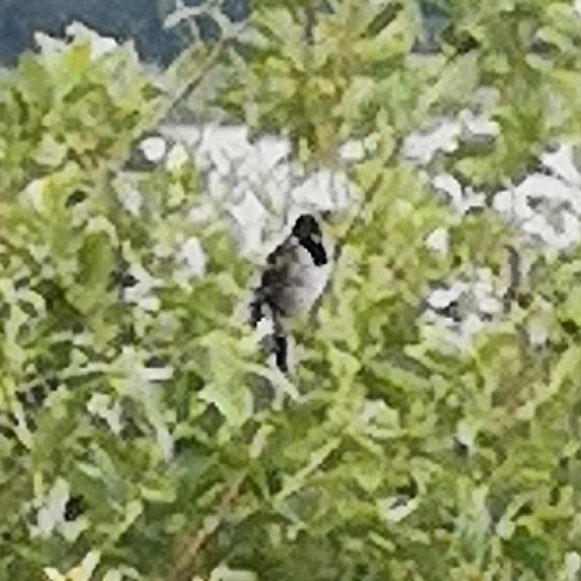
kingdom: Animalia
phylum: Chordata
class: Aves
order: Passeriformes
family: Emberizidae
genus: Emberiza
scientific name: Emberiza schoeniclus
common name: Rørspurv
